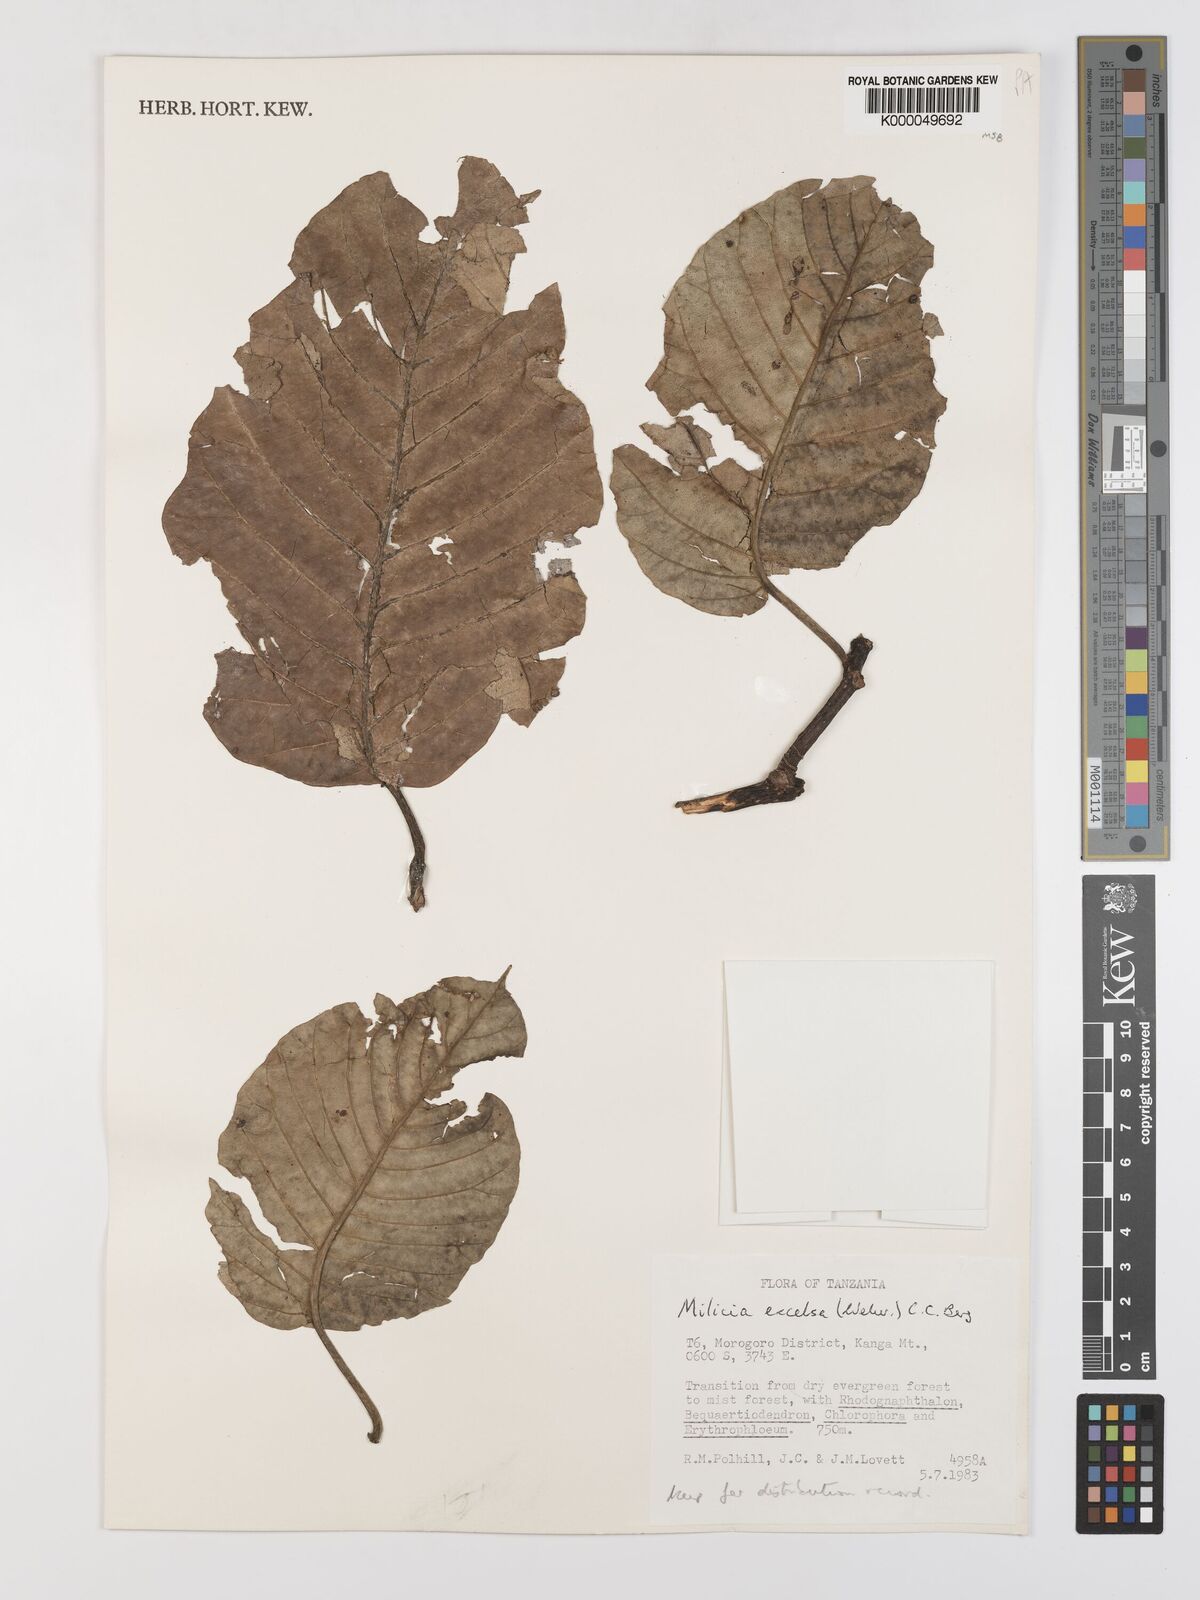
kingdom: Plantae
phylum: Tracheophyta
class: Magnoliopsida
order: Rosales
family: Moraceae
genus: Milicia
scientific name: Milicia excelsa
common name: African teak
